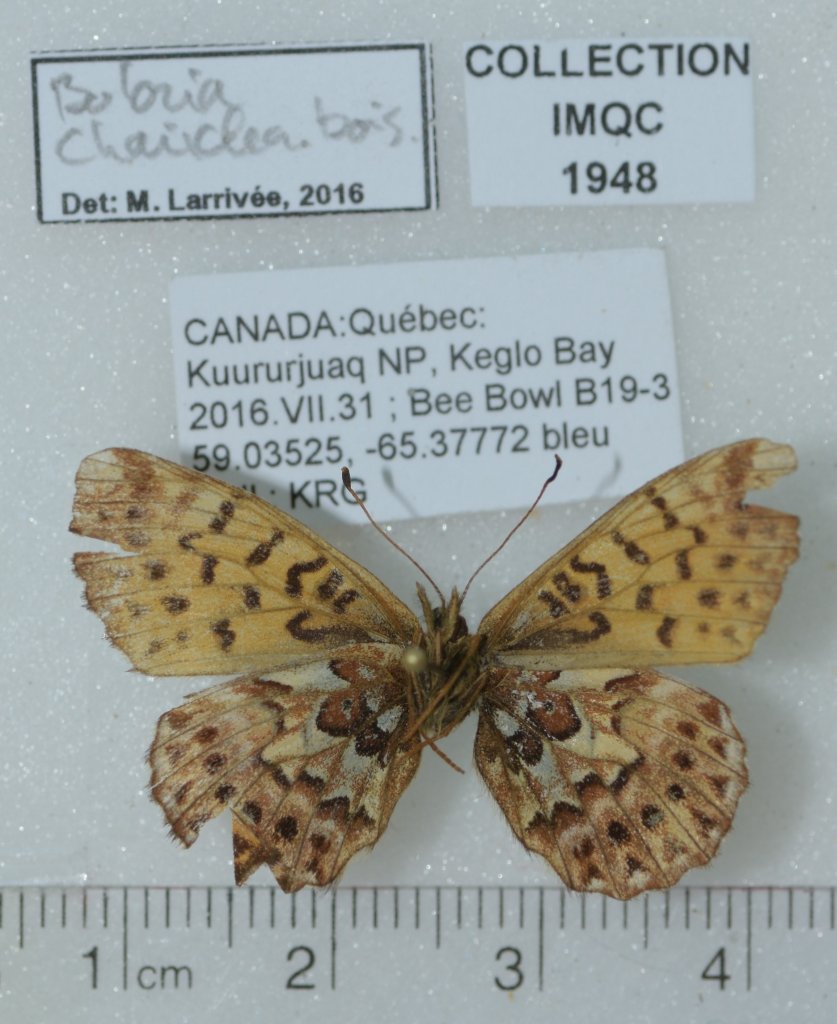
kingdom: Animalia
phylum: Arthropoda
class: Insecta
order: Lepidoptera
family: Nymphalidae
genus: Boloria
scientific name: Boloria chariclea
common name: Arctic Fritillary
